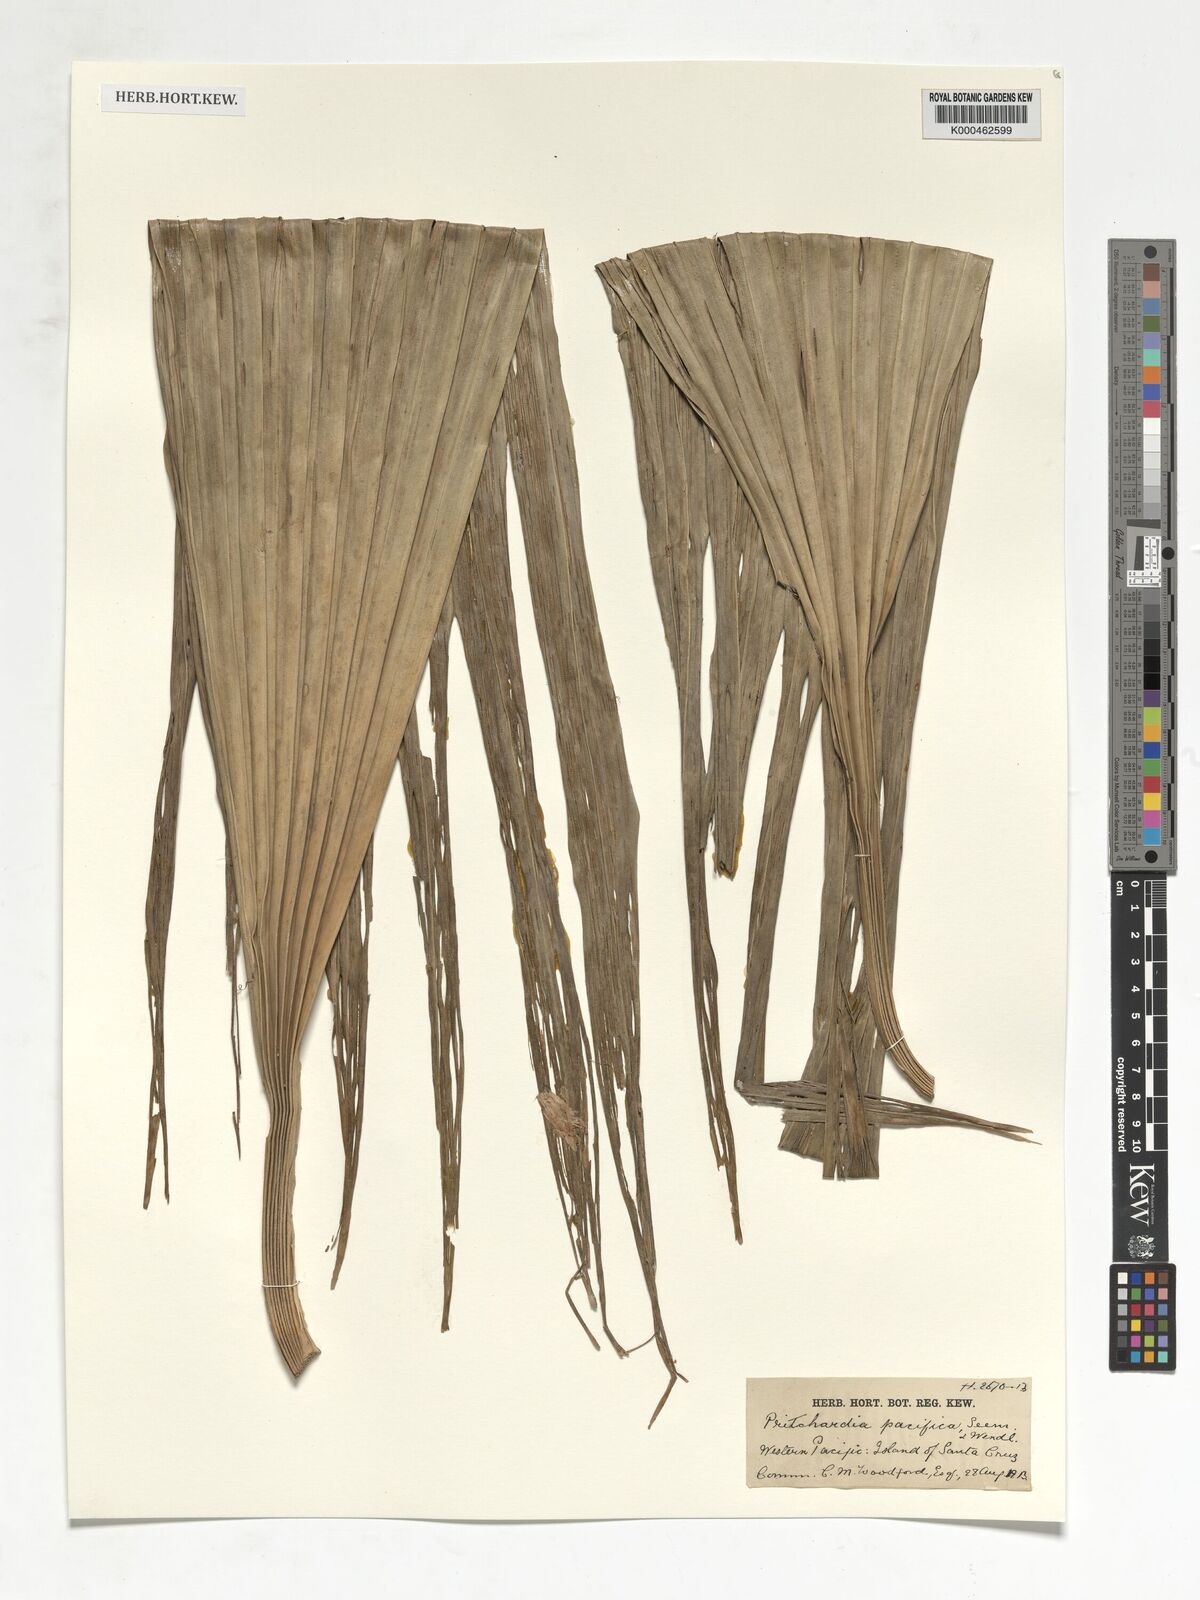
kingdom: Plantae
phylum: Tracheophyta
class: Liliopsida
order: Arecales
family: Arecaceae
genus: Pritchardia
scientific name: Pritchardia pacifica
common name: Fiji fan palm
